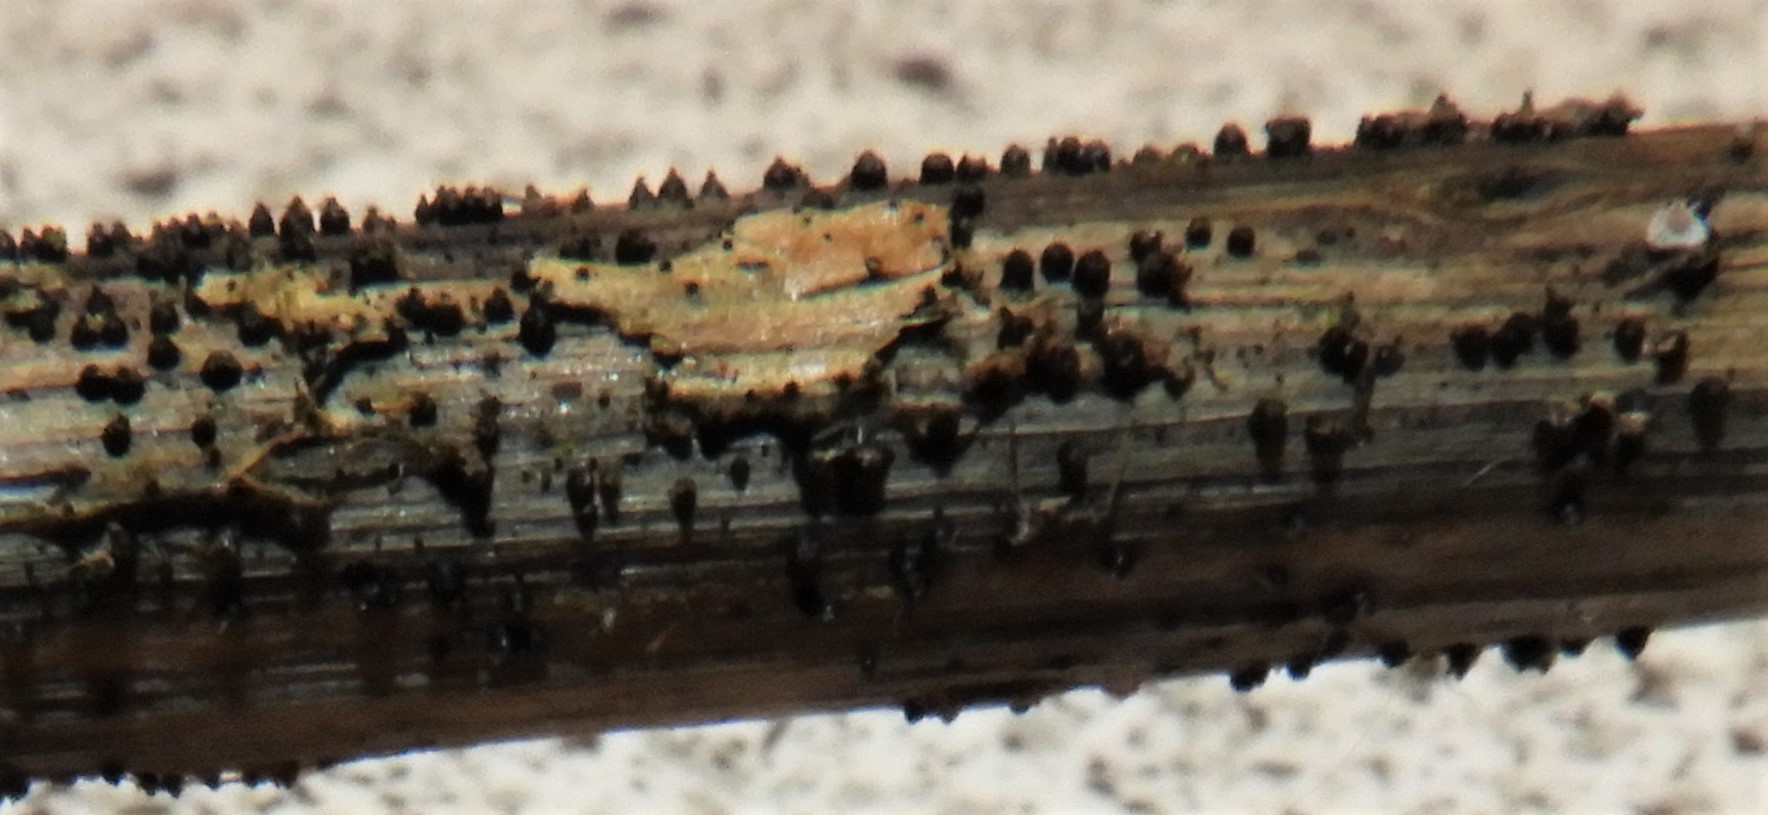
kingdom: Fungi
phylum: Ascomycota
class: Dothideomycetes
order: Pleosporales
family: Leptosphaeriaceae
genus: Leptosphaeria
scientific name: Leptosphaeria
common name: kulkegle
